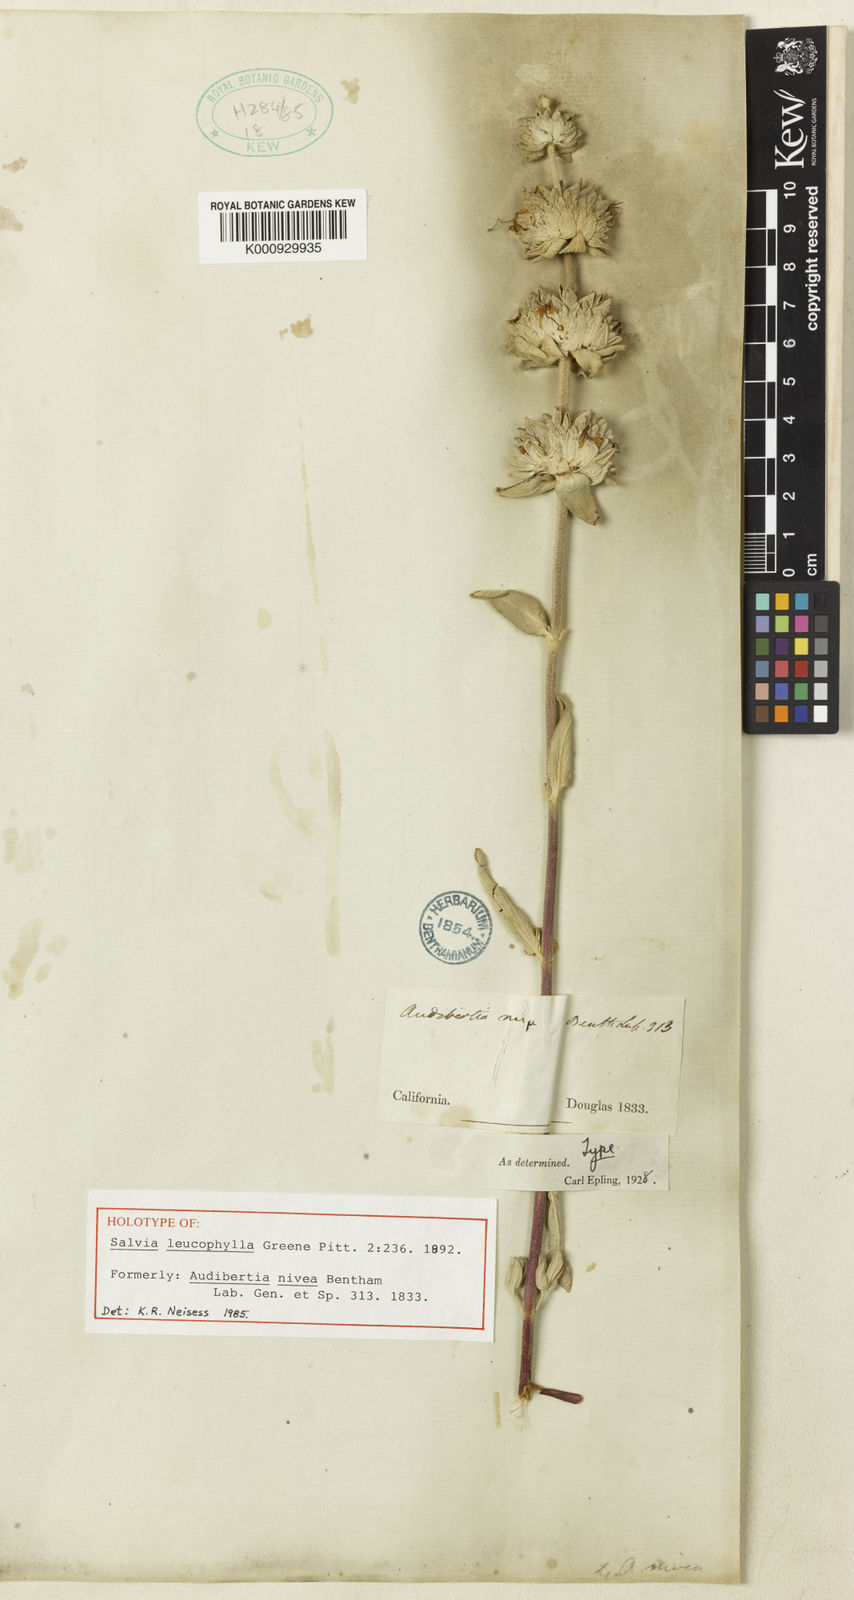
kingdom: Plantae
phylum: Tracheophyta
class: Magnoliopsida
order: Lamiales
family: Lamiaceae
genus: Salvia
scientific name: Salvia leucophylla
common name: Purple sage
